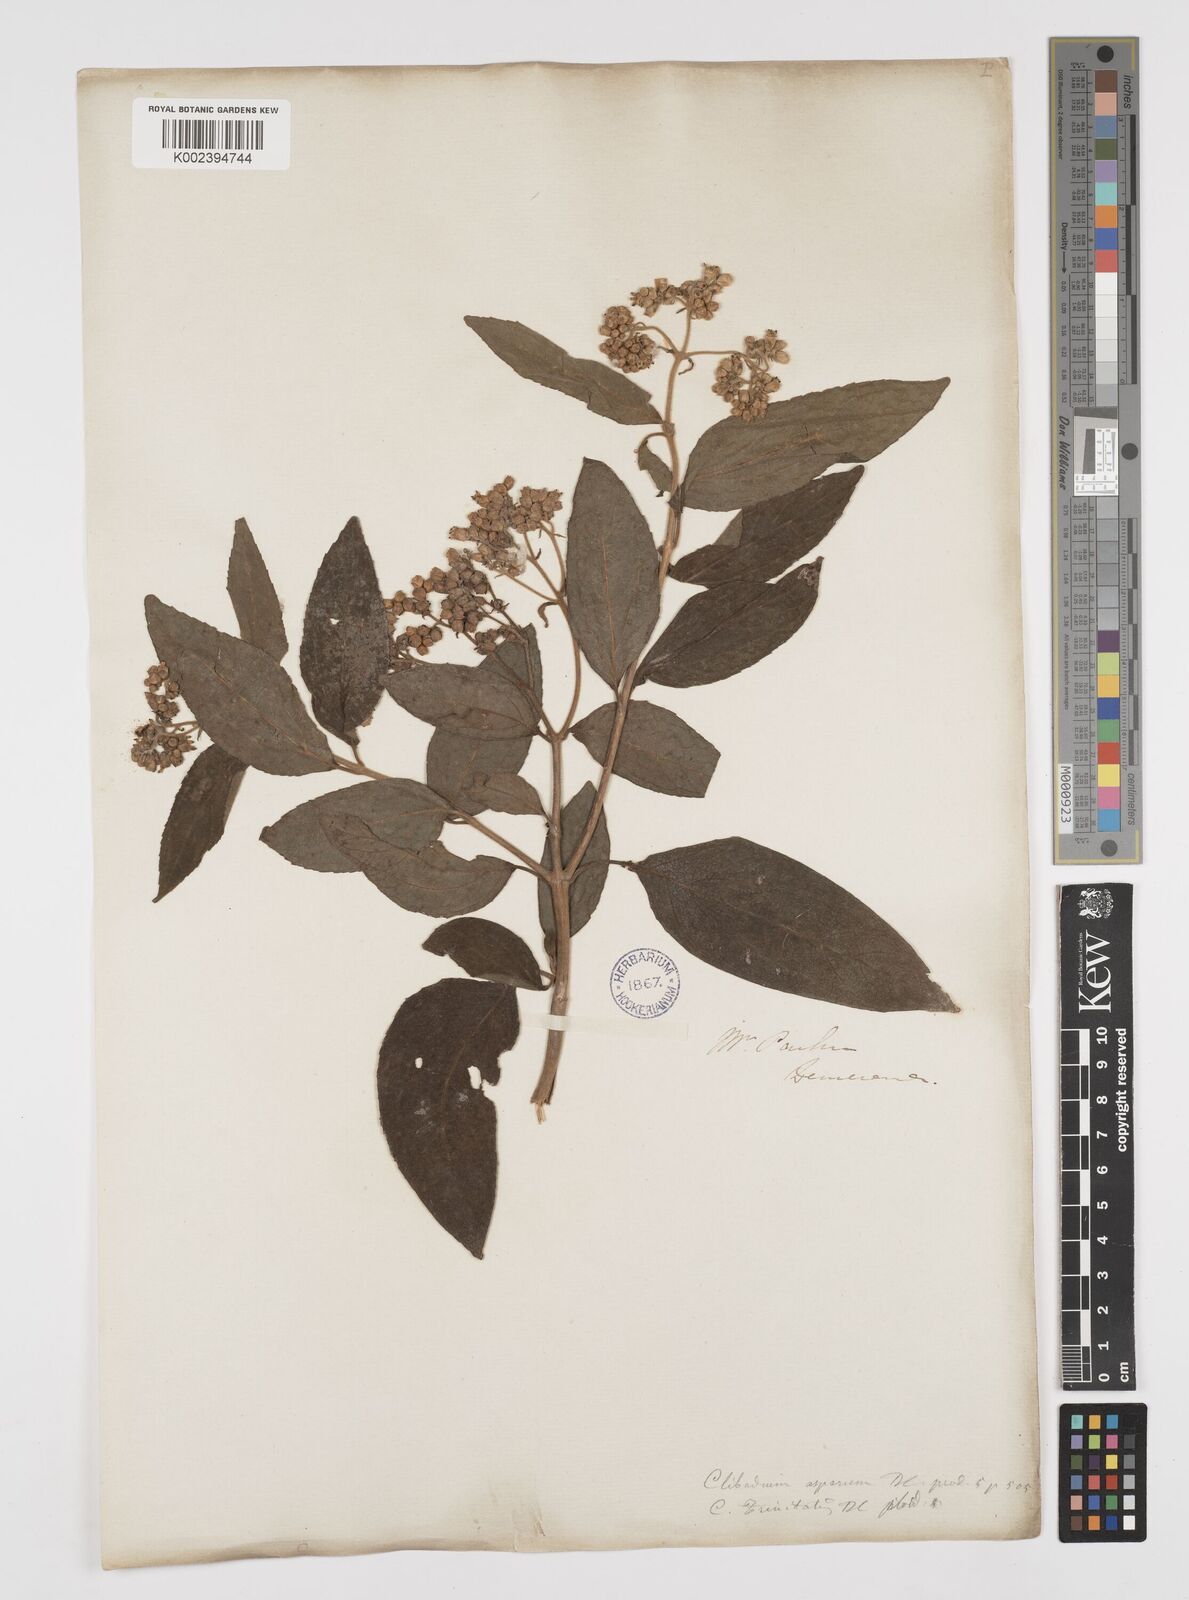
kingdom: Plantae
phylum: Tracheophyta
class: Magnoliopsida
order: Asterales
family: Asteraceae
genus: Clibadium
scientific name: Clibadium surinamense
